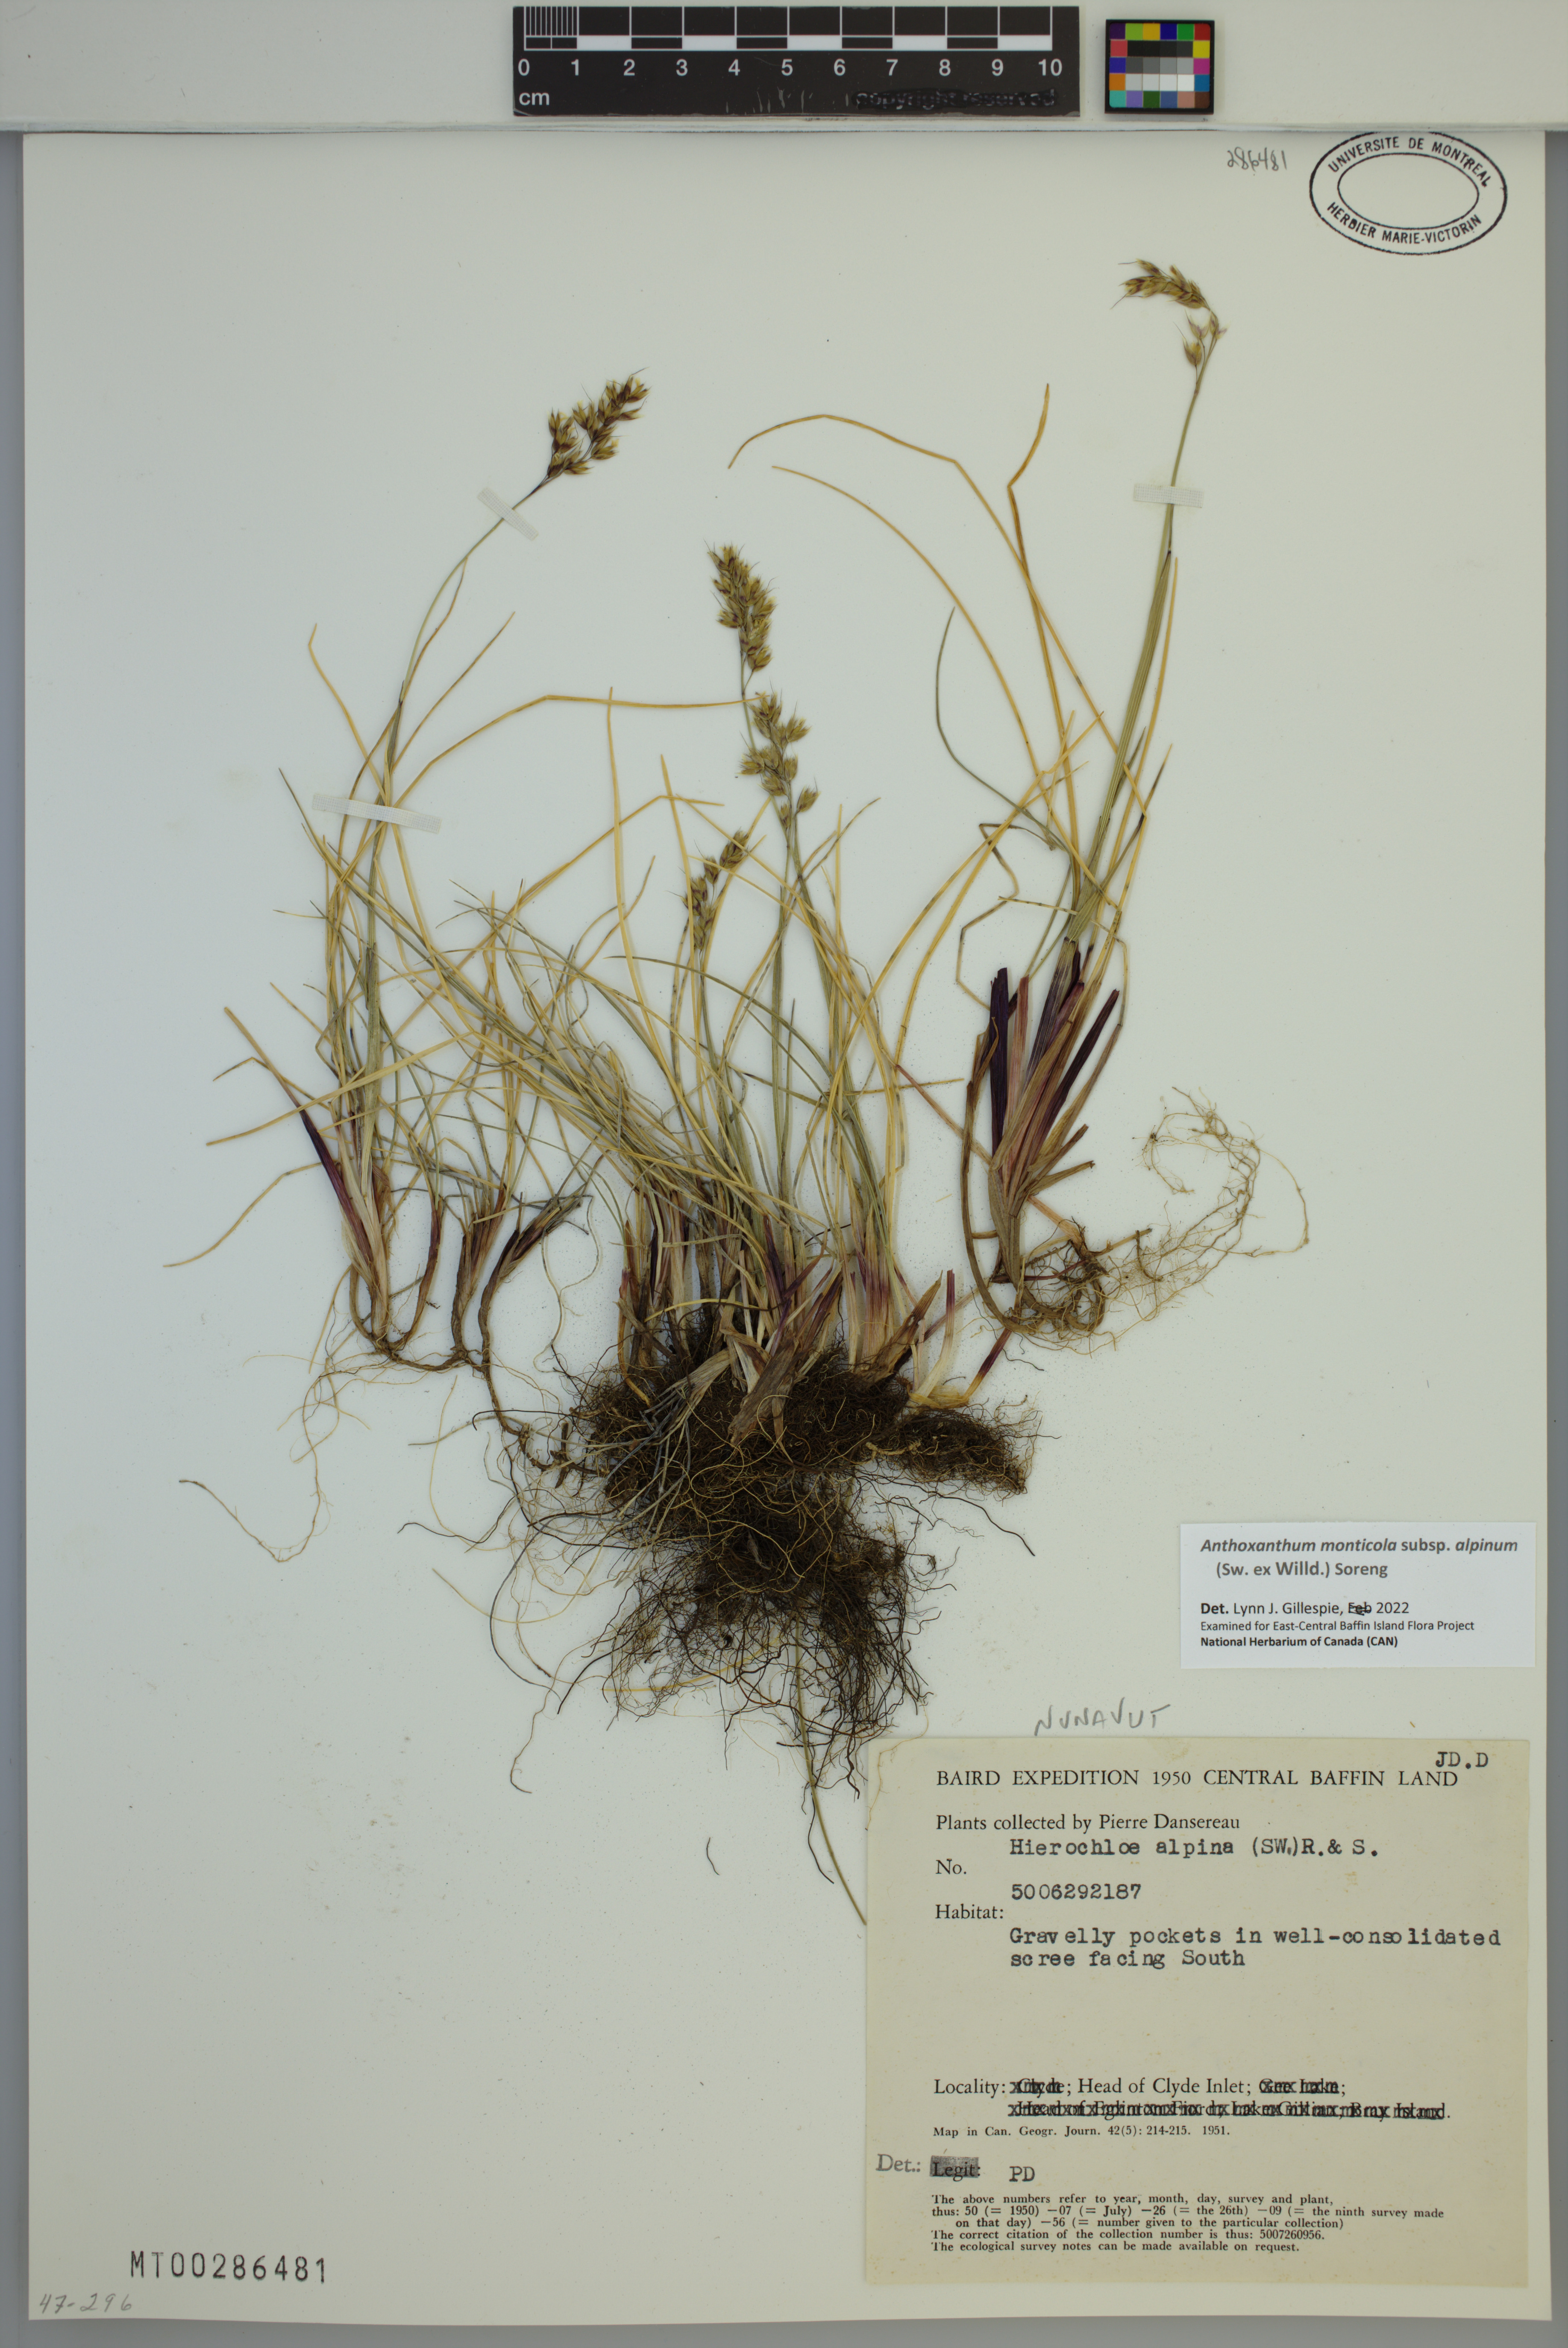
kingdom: Plantae
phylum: Tracheophyta
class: Liliopsida
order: Poales
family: Poaceae
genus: Anthoxanthum
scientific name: Anthoxanthum monticola
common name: Alpine sweetgrass
